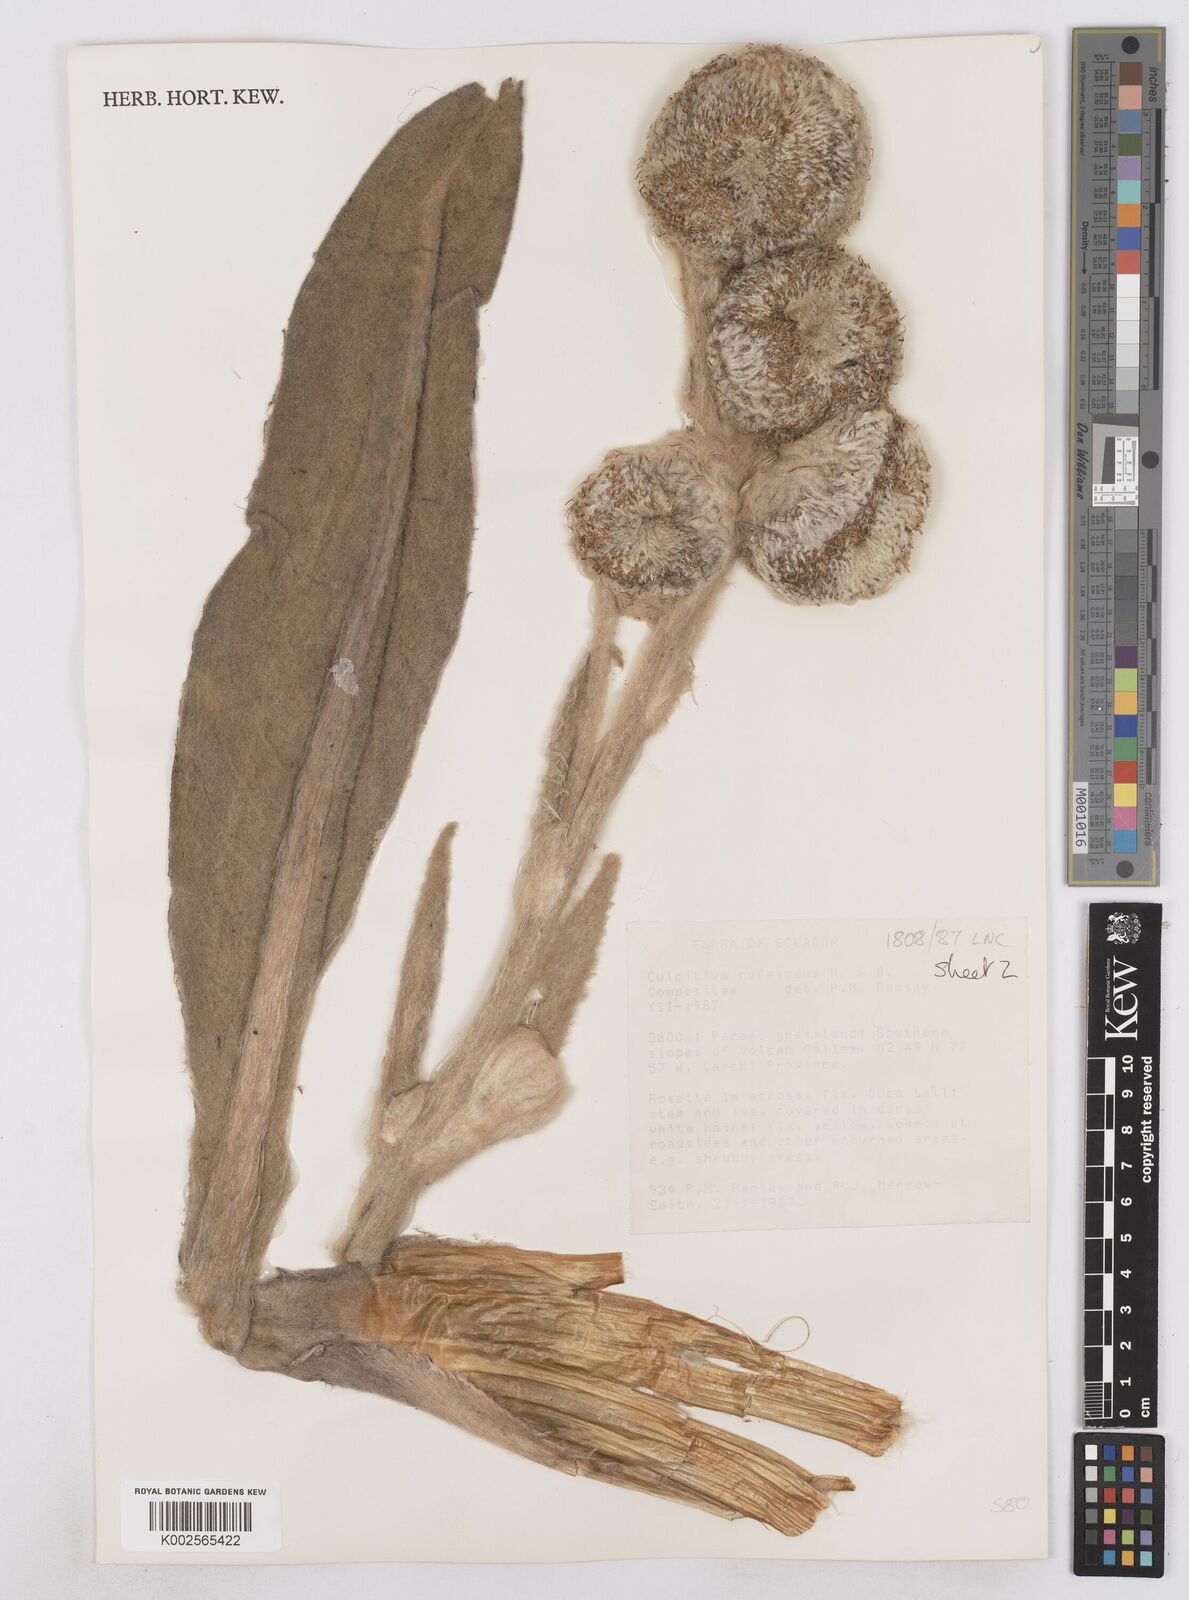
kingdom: Plantae
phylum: Tracheophyta
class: Magnoliopsida
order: Asterales
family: Asteraceae
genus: Culcitium
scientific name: Culcitium canescens
